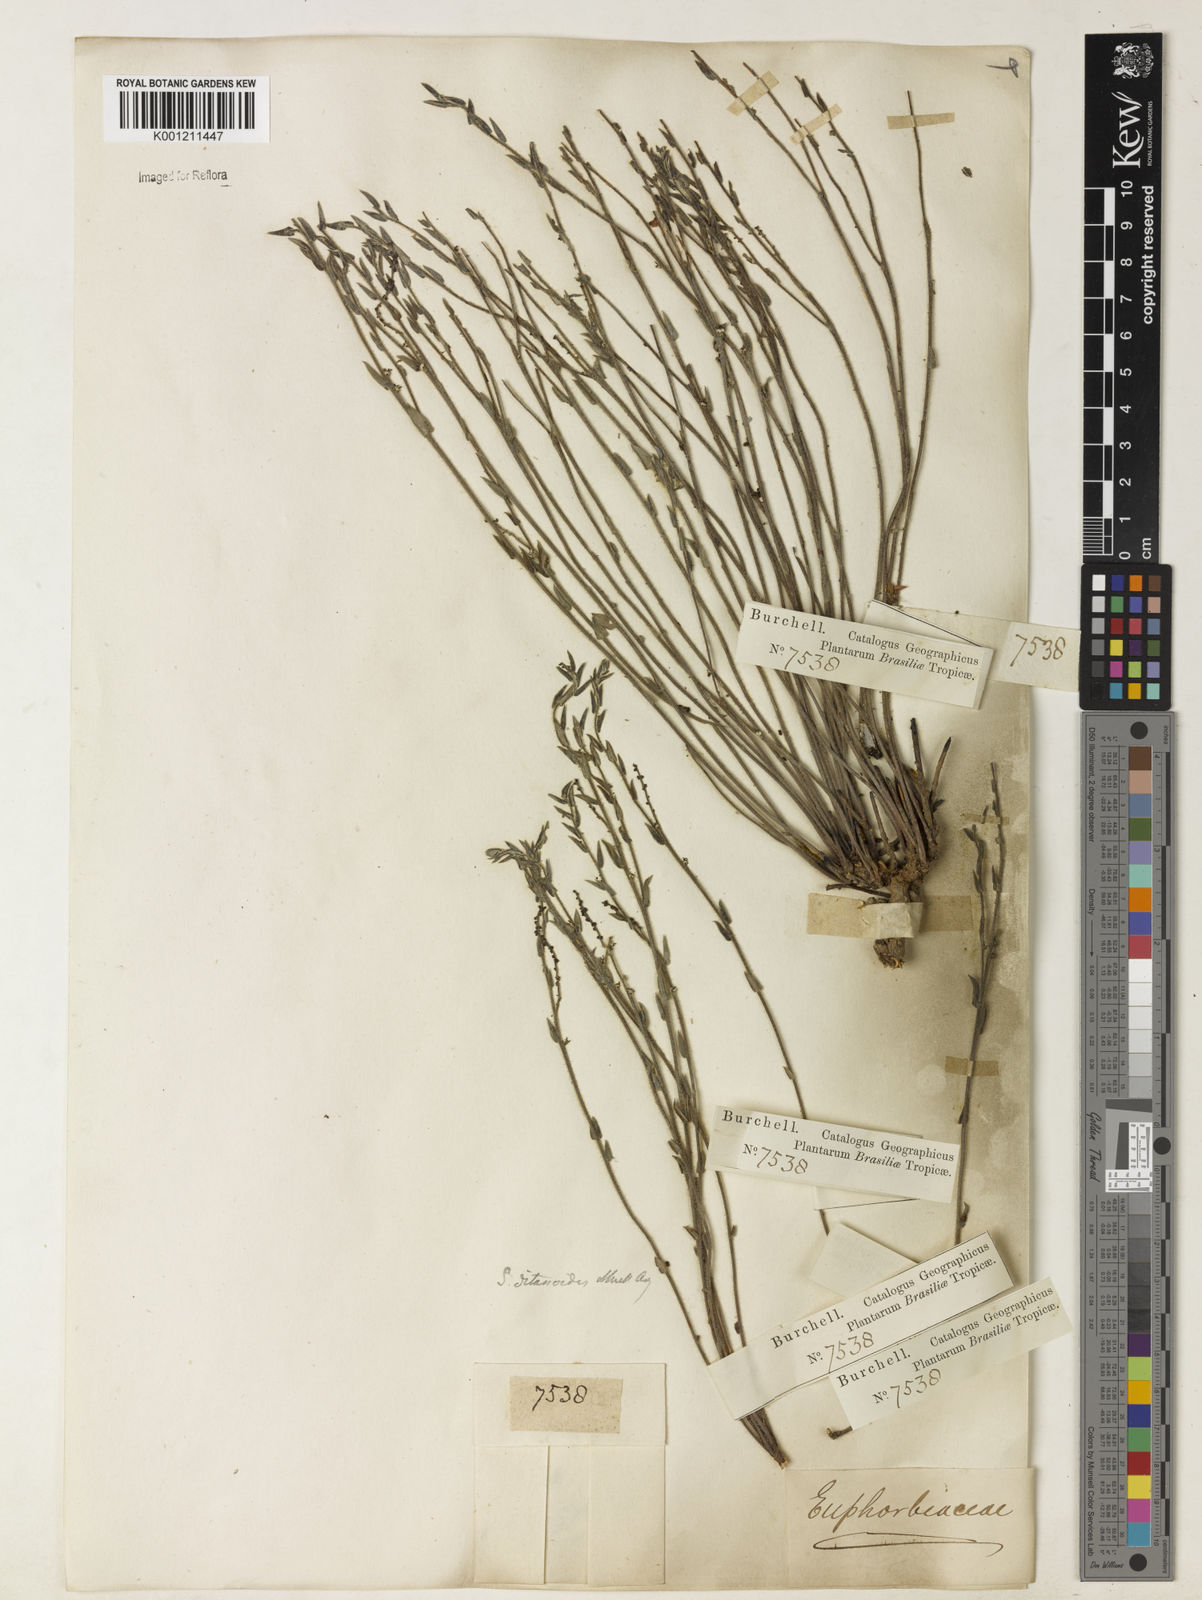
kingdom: Plantae
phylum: Tracheophyta
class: Magnoliopsida
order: Malpighiales
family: Euphorbiaceae
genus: Microstachys
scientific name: Microstachys ditassoides
